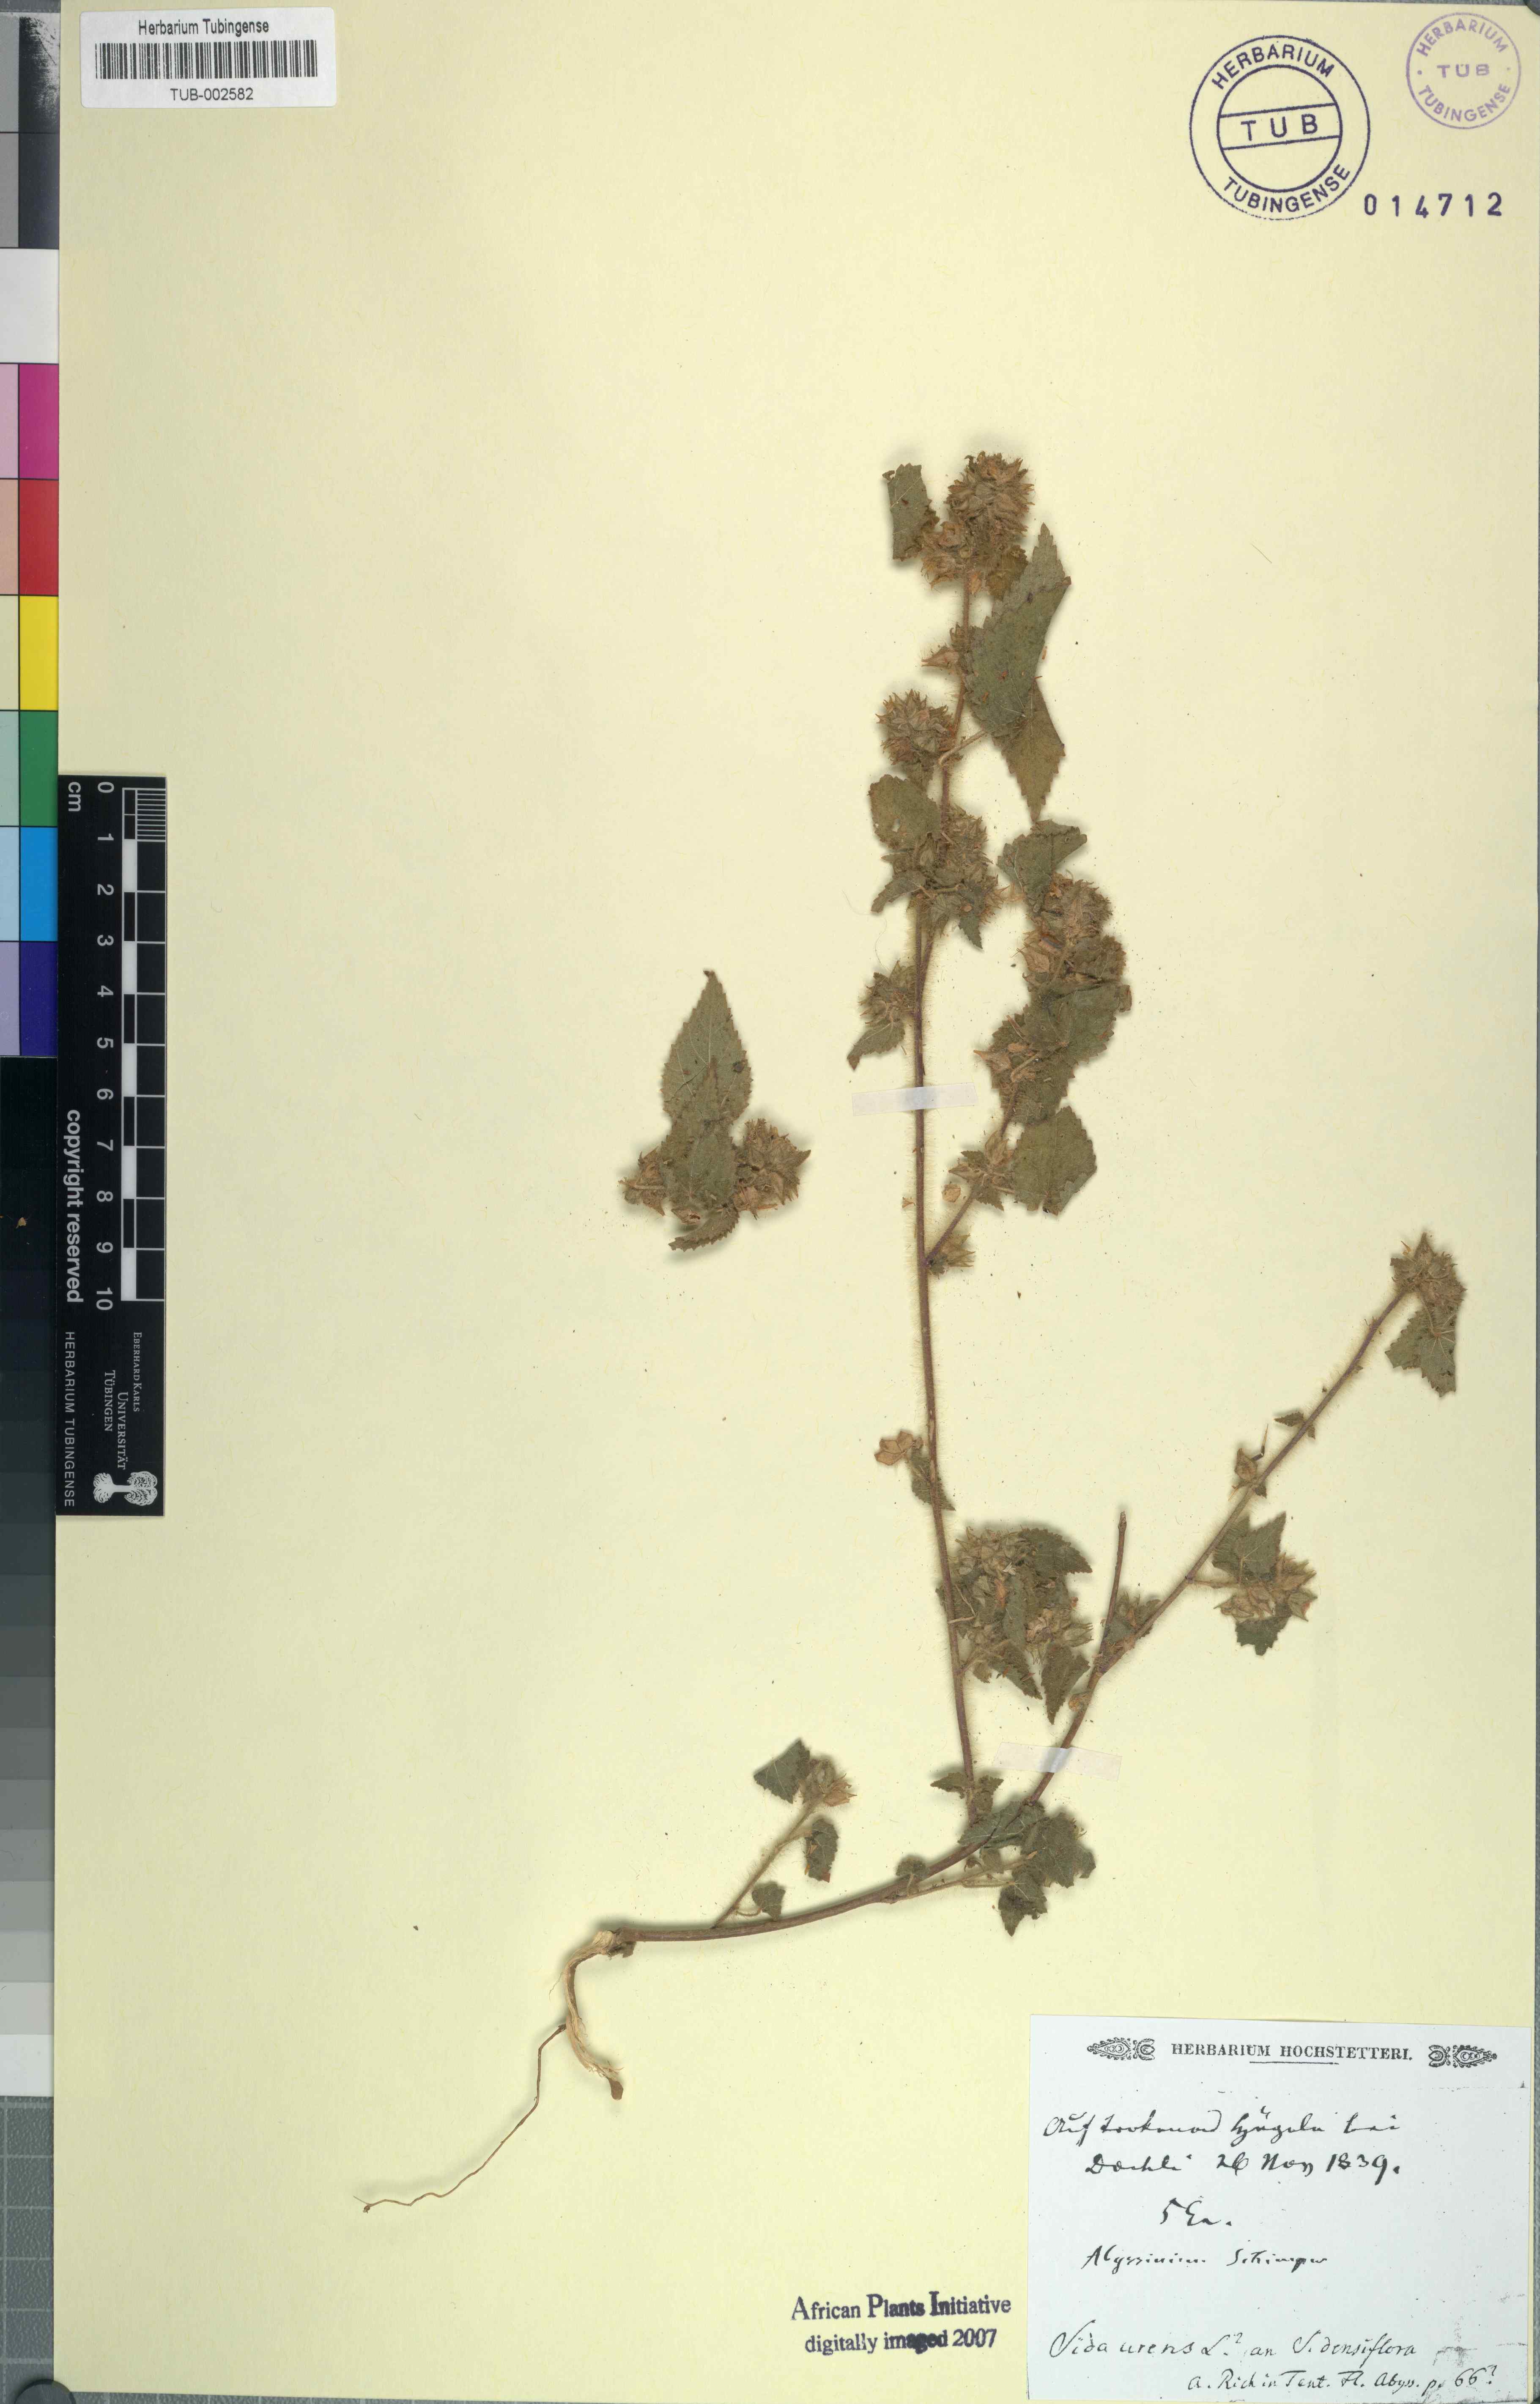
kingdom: Plantae
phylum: Tracheophyta
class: Magnoliopsida
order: Malvales
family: Malvaceae
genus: Sida
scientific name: Sida urens
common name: Tropical fanpetals
